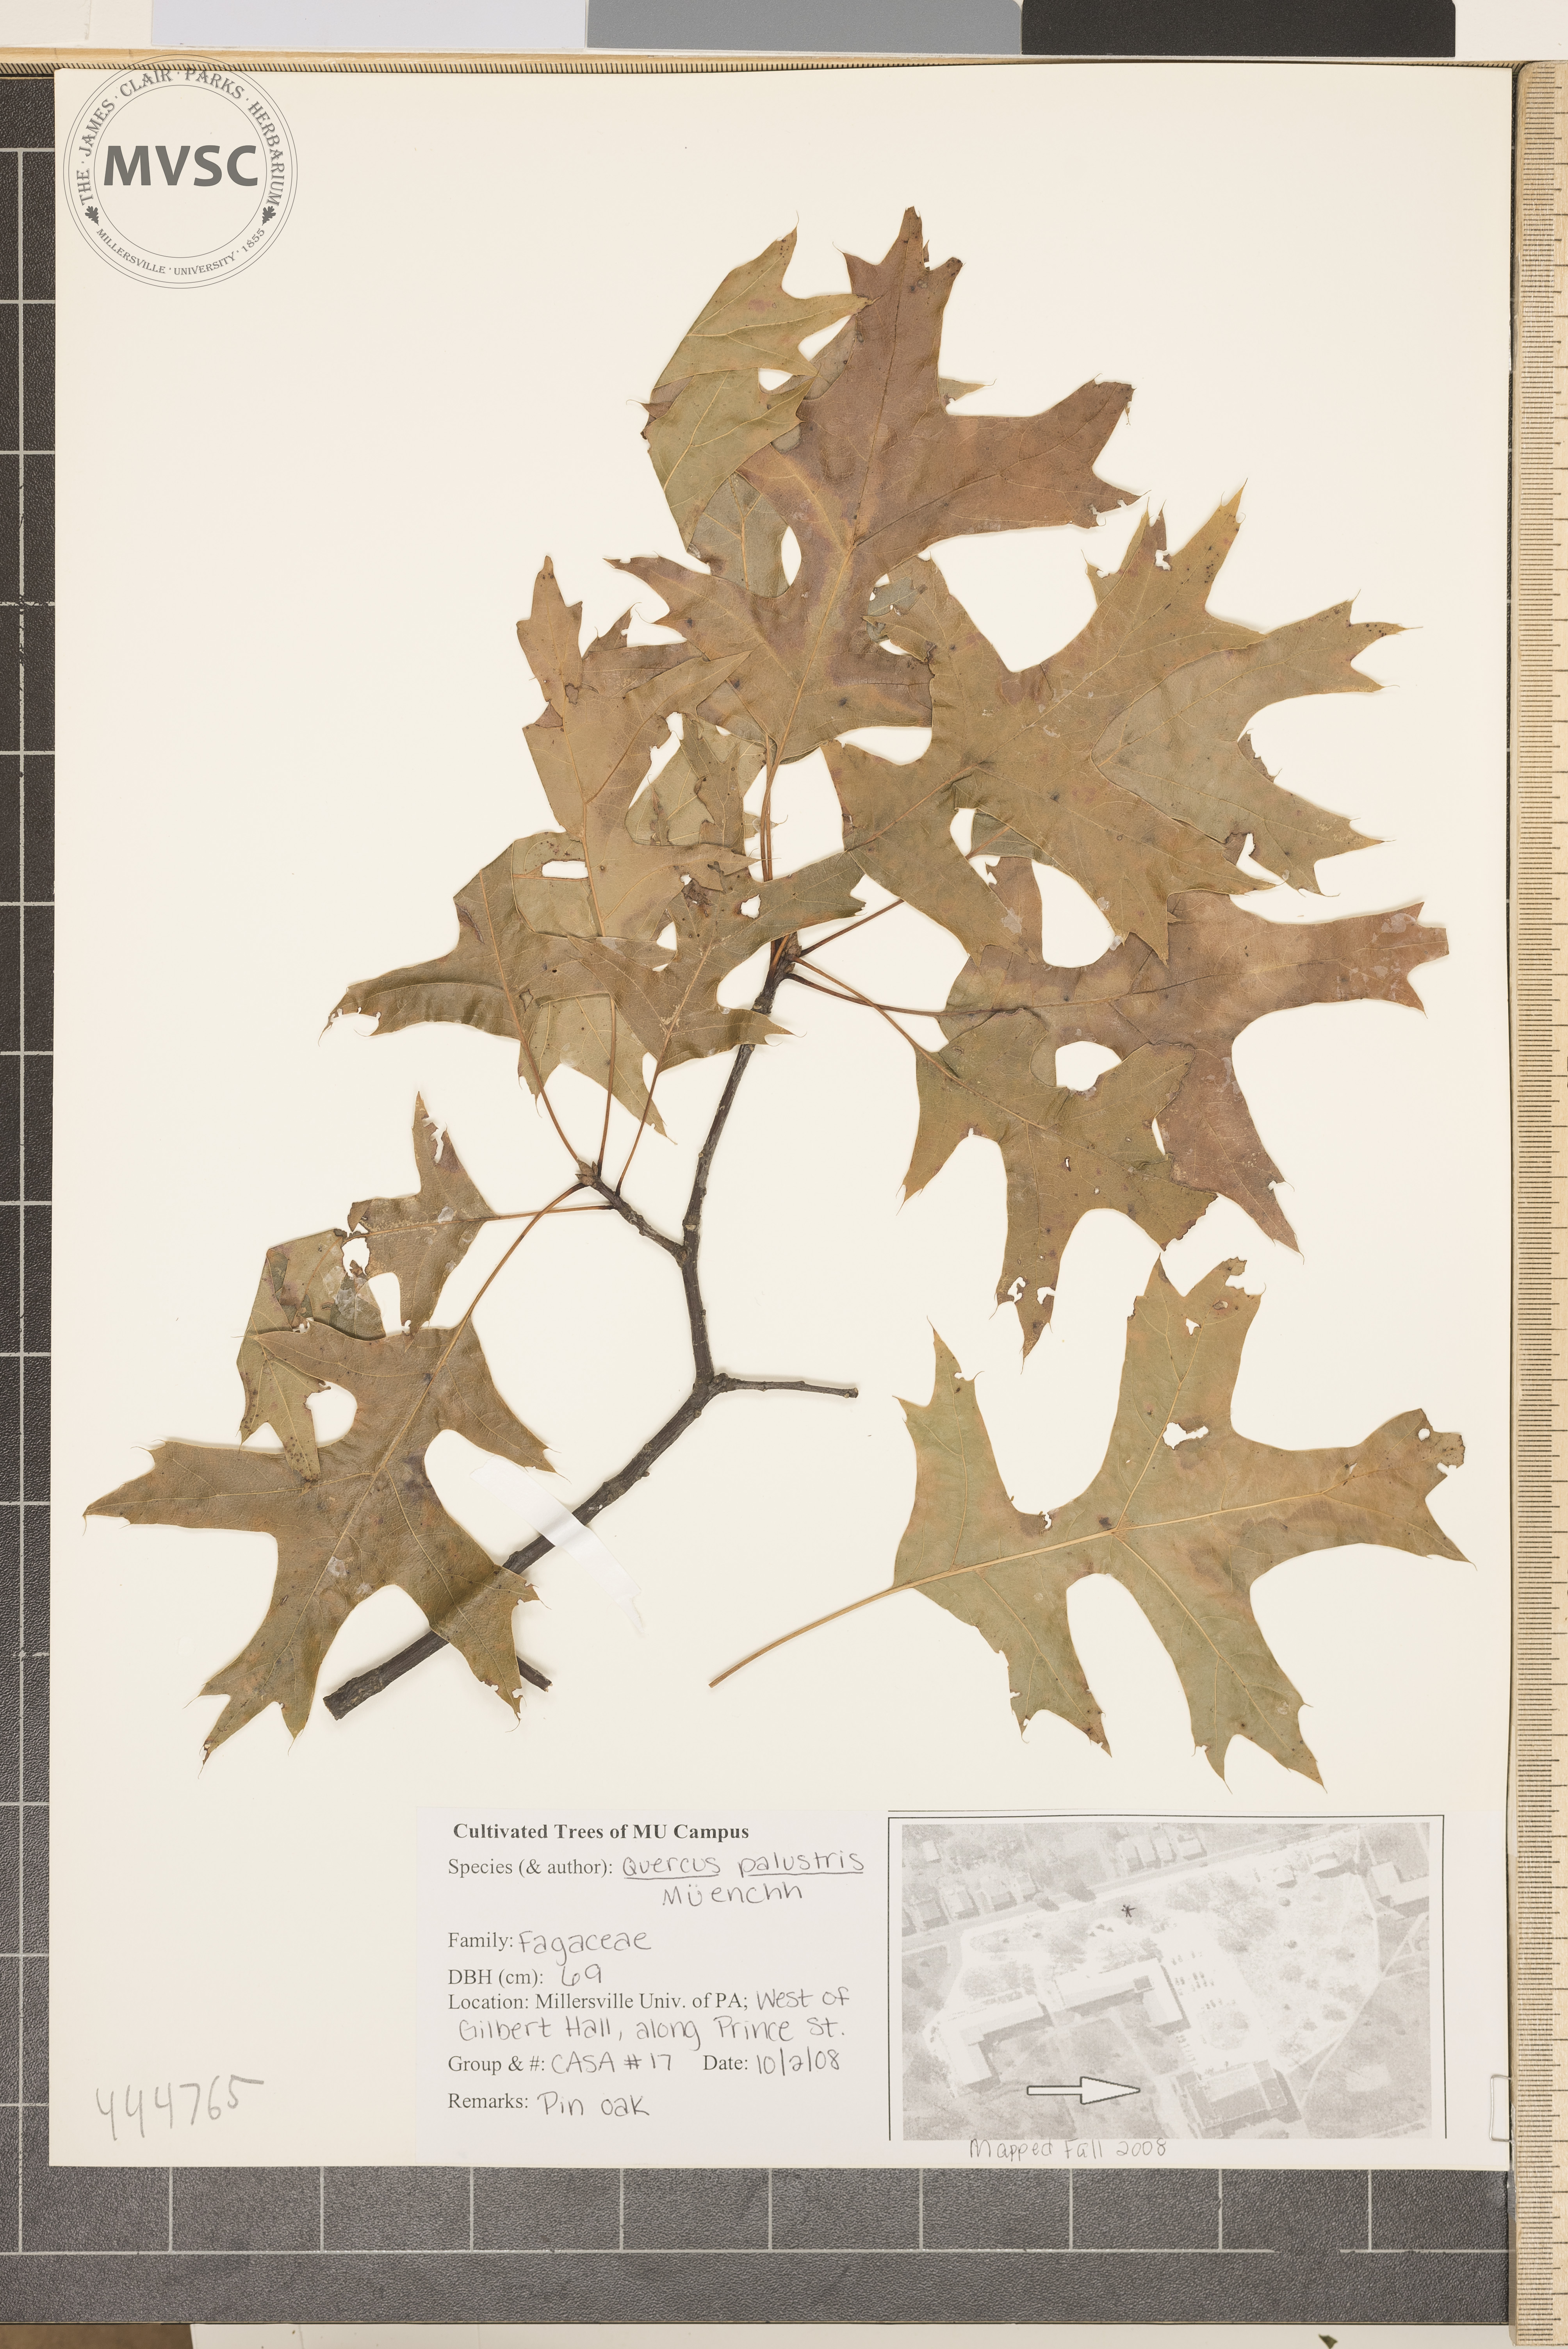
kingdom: Plantae
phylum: Tracheophyta
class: Magnoliopsida
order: Fagales
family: Fagaceae
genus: Quercus
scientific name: Quercus palustris
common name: Pin oak
